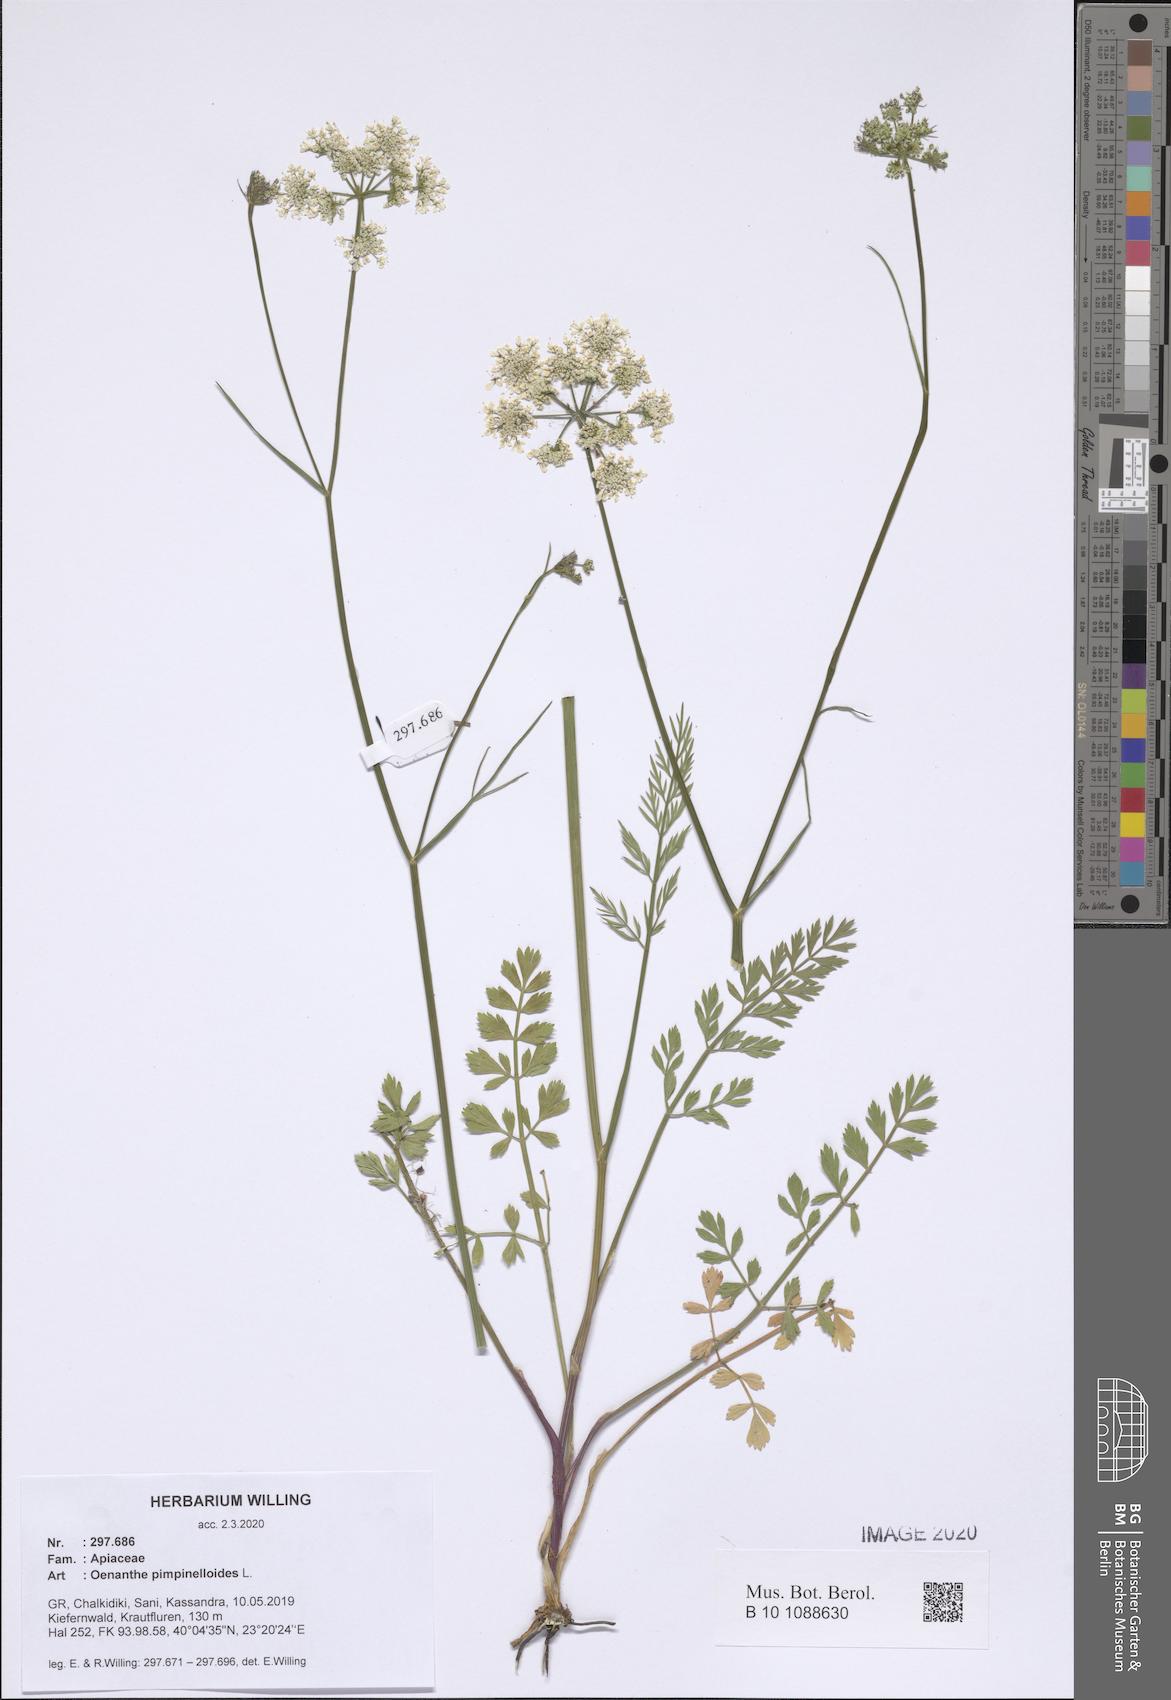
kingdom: Plantae
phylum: Tracheophyta
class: Magnoliopsida
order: Apiales
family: Apiaceae
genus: Oenanthe
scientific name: Oenanthe pimpinelloides
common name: Corky-fruited water-dropwort
